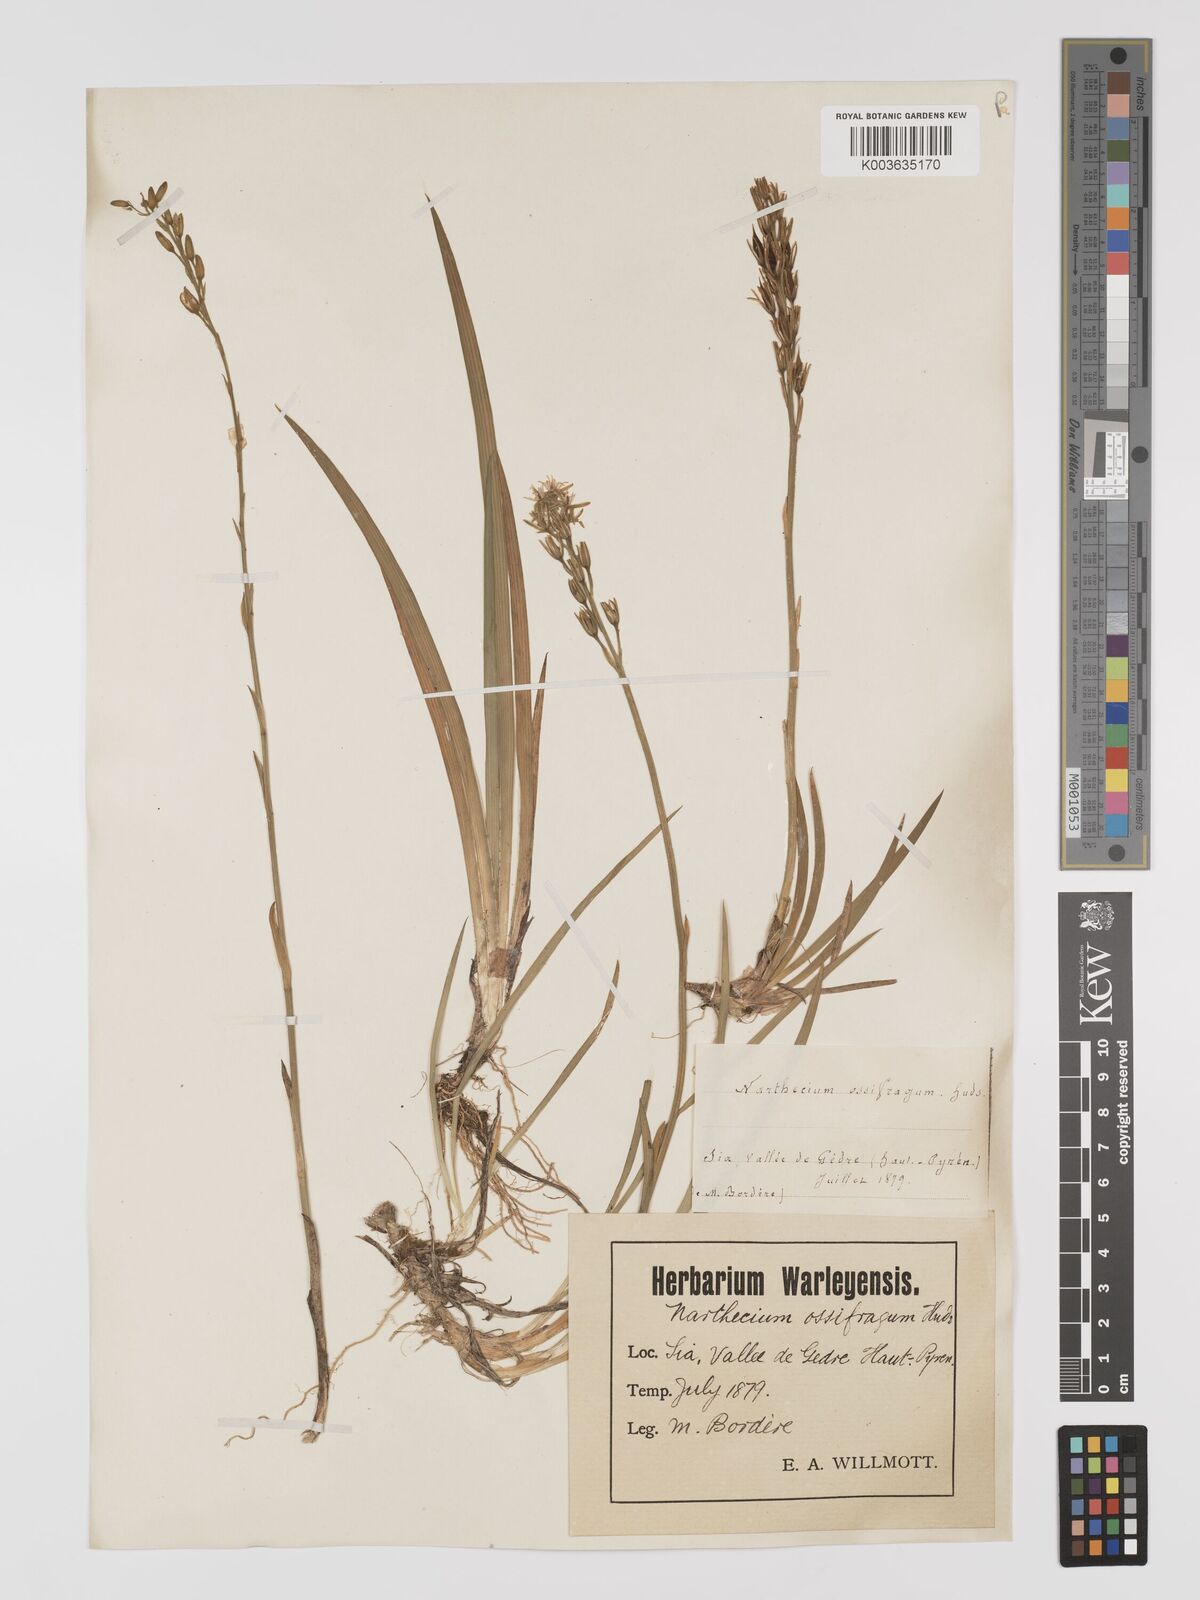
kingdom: Plantae
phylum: Tracheophyta
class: Liliopsida
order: Dioscoreales
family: Nartheciaceae
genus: Narthecium
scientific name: Narthecium ossifragum
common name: Bog asphodel
